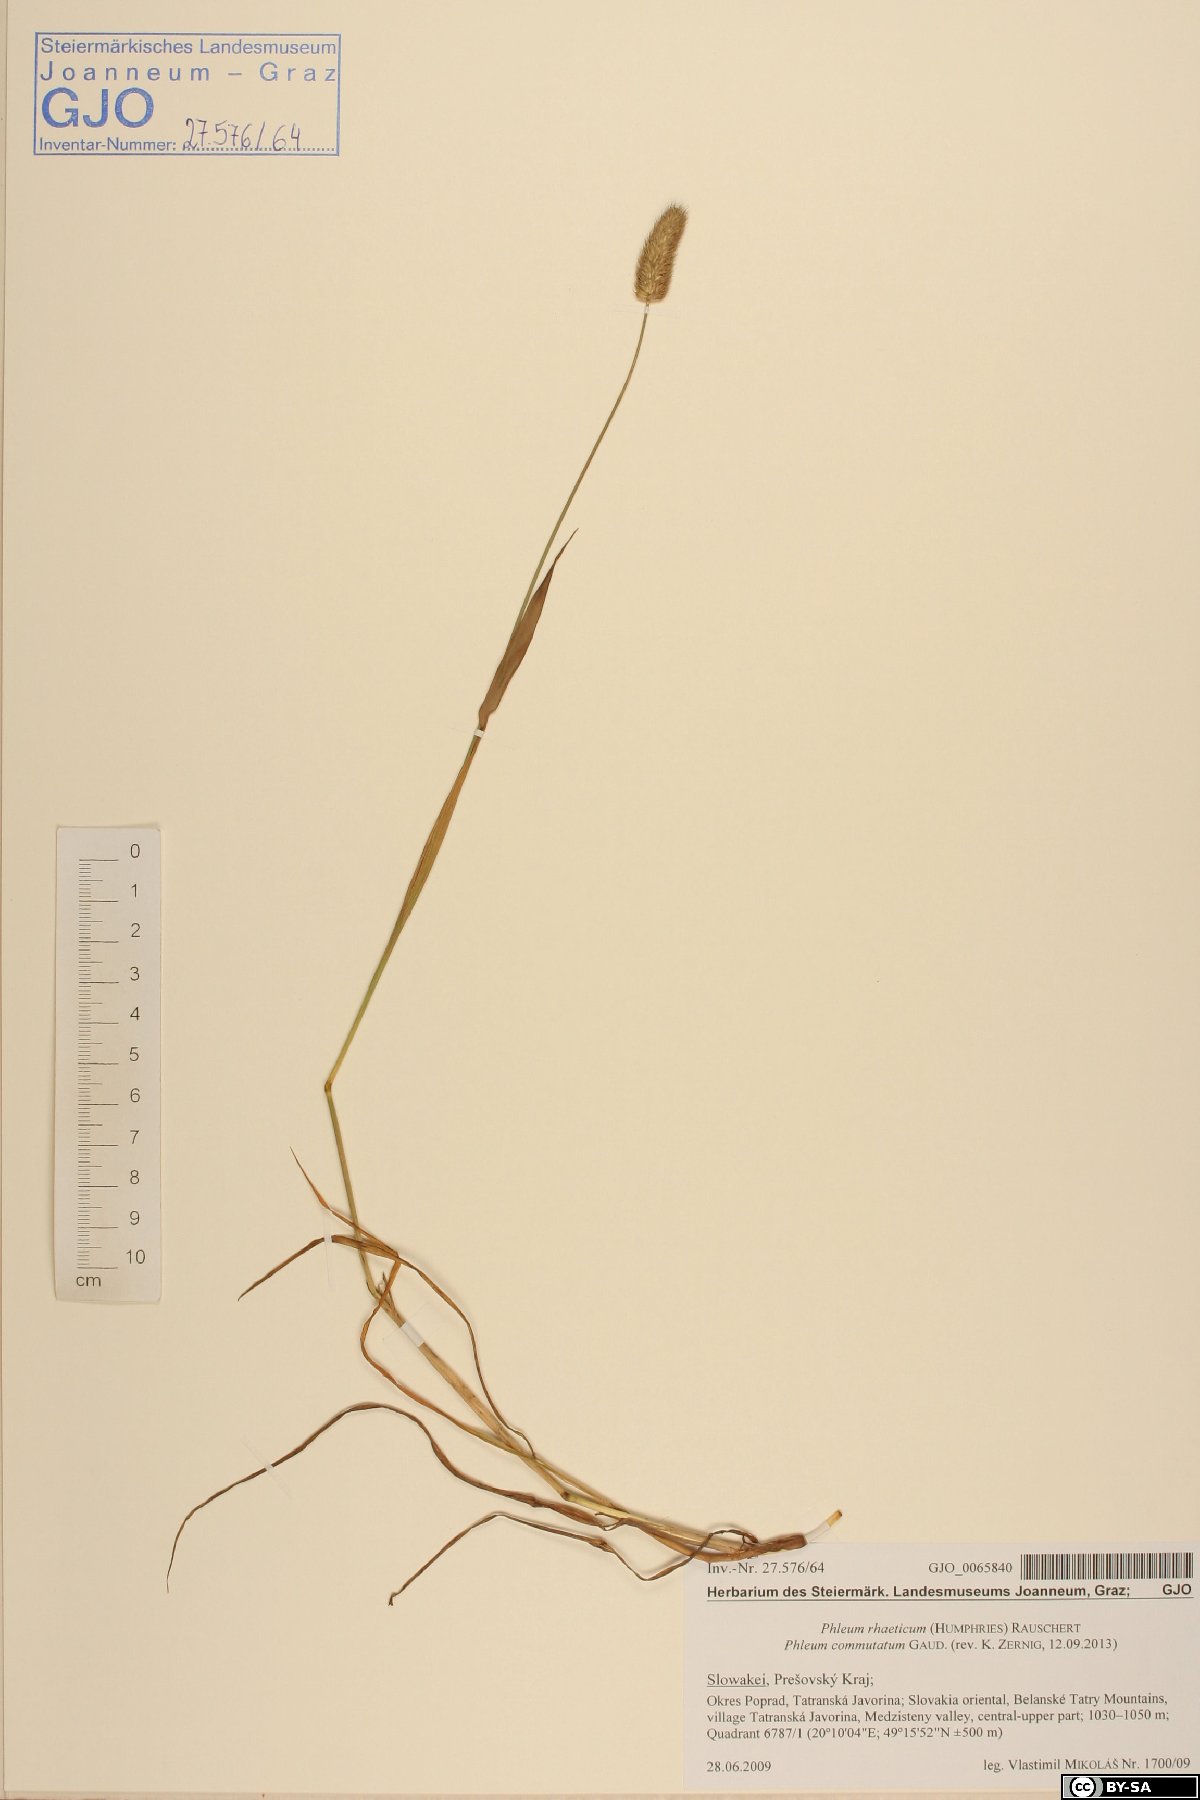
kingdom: Plantae
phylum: Tracheophyta
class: Liliopsida
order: Poales
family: Poaceae
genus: Phleum
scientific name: Phleum alpinum
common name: Alpine cat's-tail
